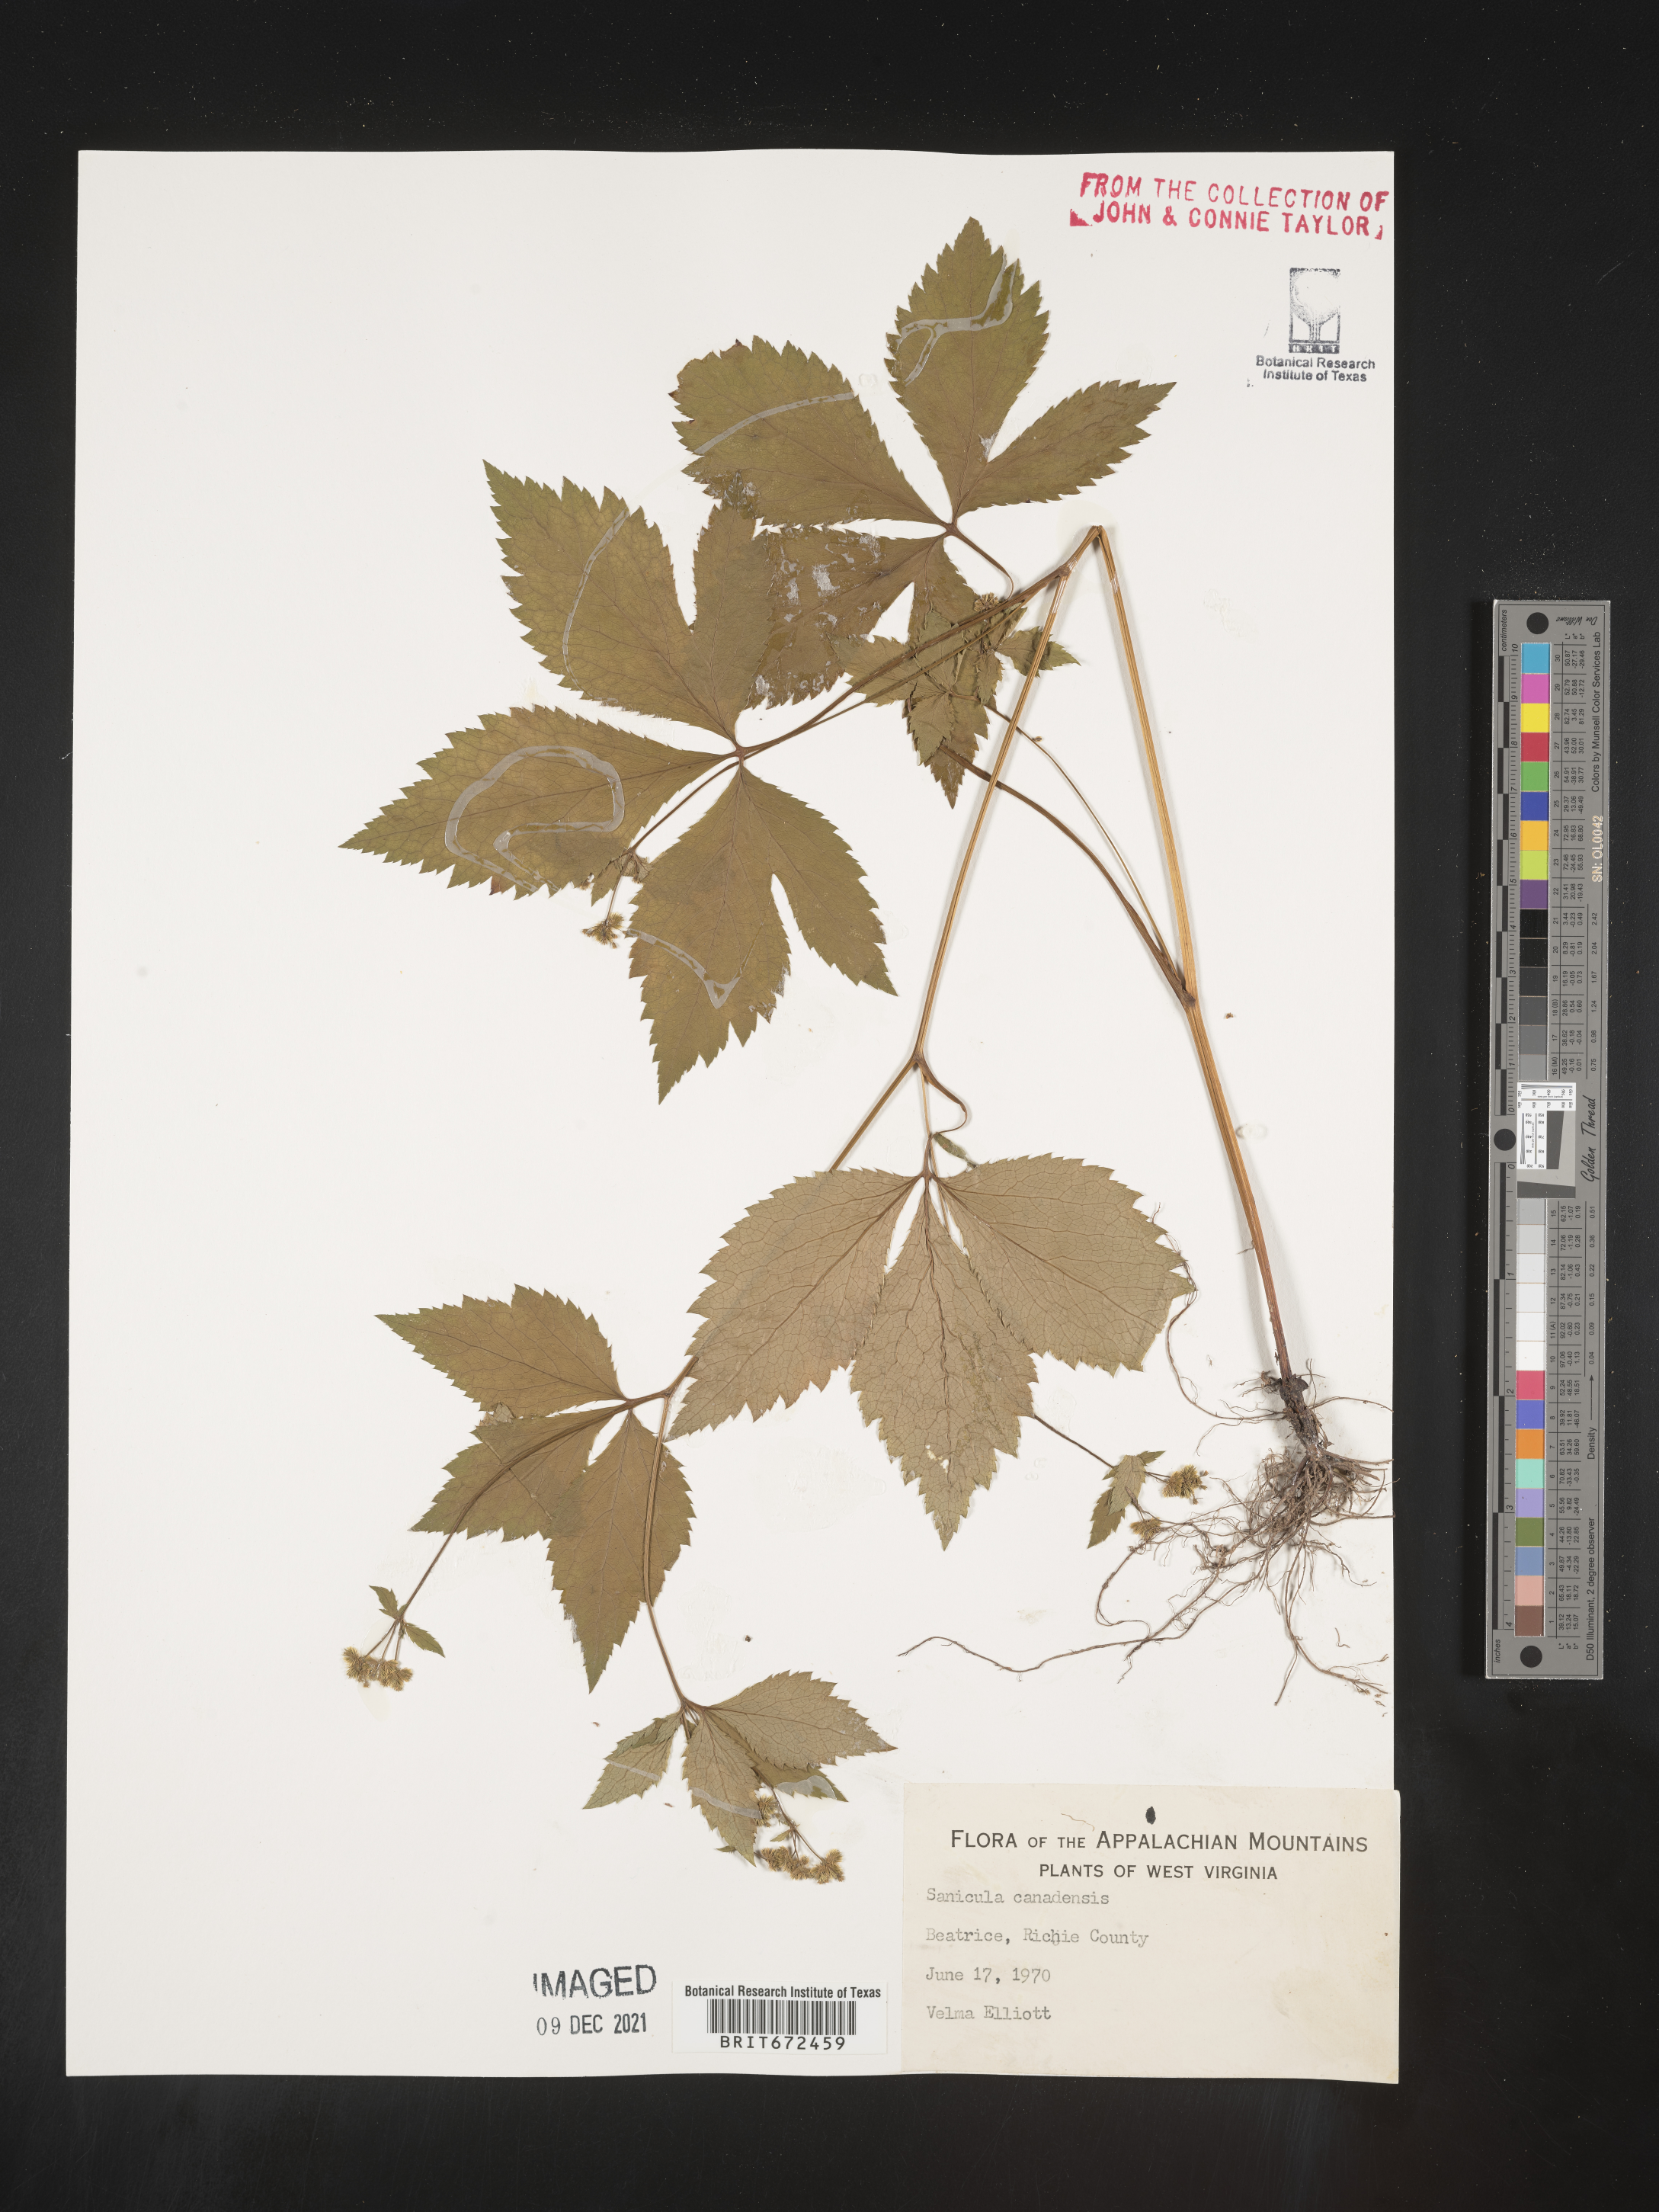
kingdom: Plantae
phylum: Tracheophyta
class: Magnoliopsida
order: Apiales
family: Apiaceae
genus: Sanicula
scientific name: Sanicula canadensis
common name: Canada sanicle
